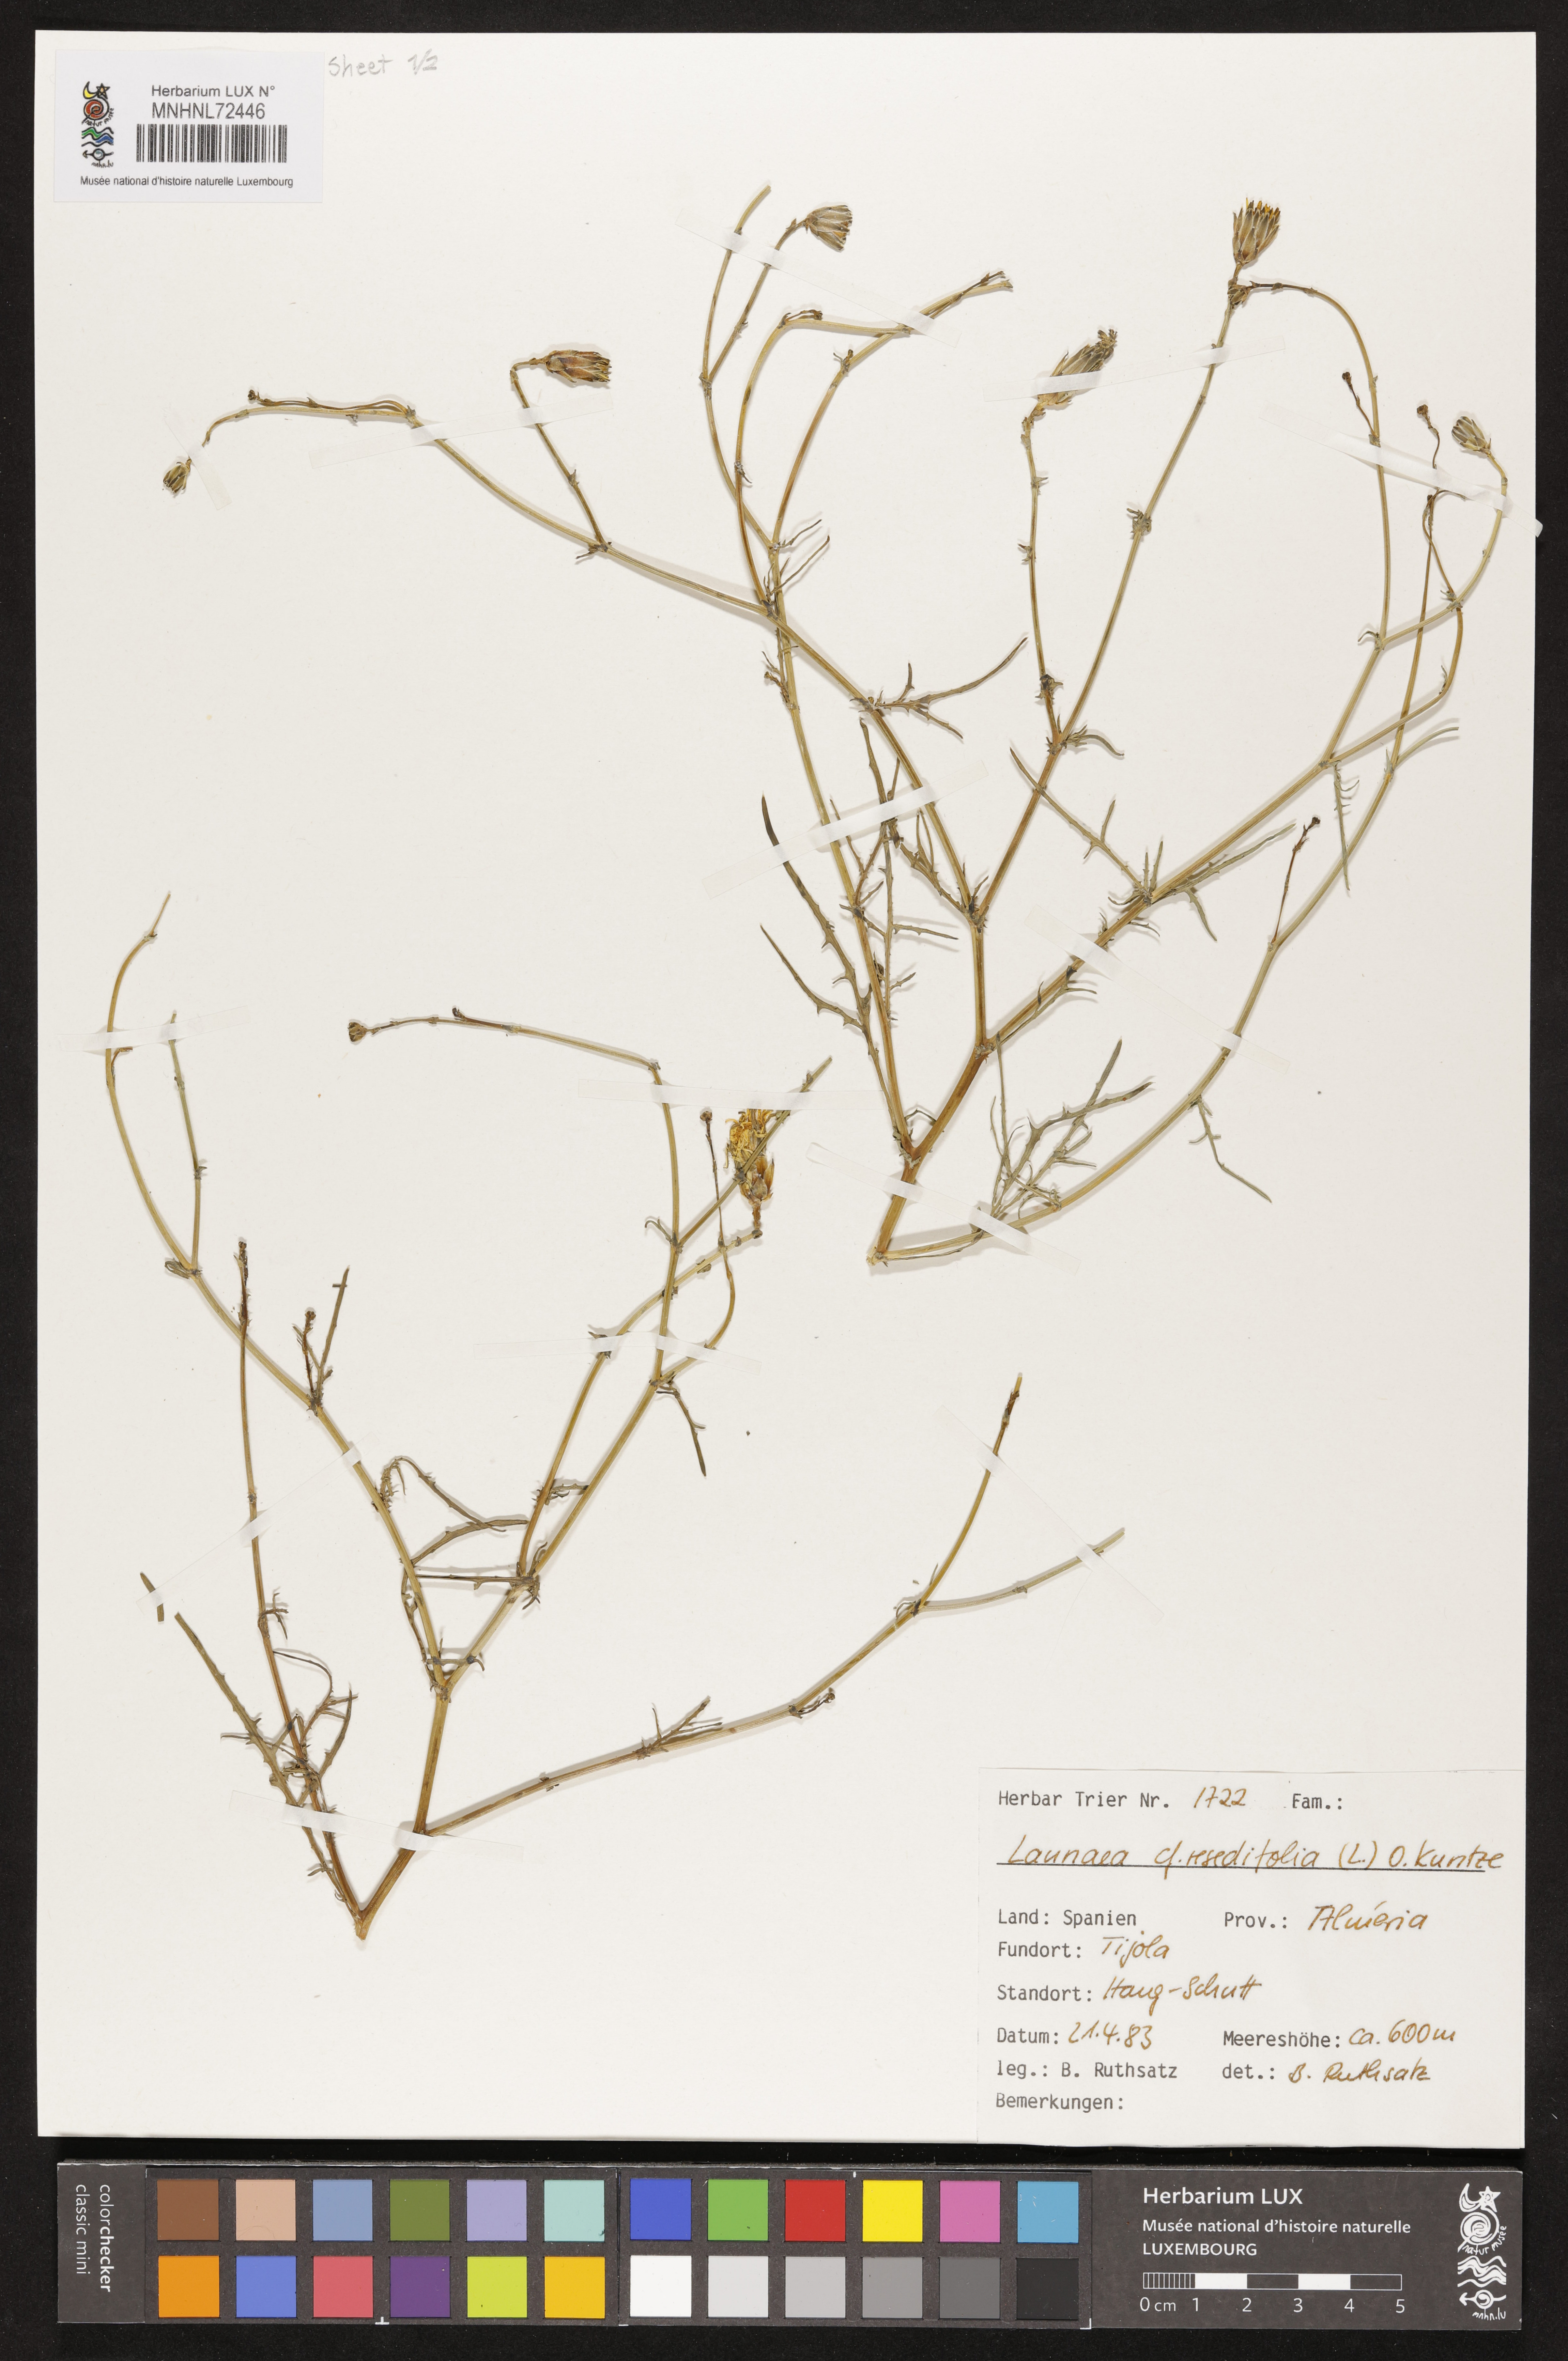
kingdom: Plantae
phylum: Tracheophyta
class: Magnoliopsida
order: Asterales
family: Asteraceae
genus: Launaea
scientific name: Launaea fragilis
